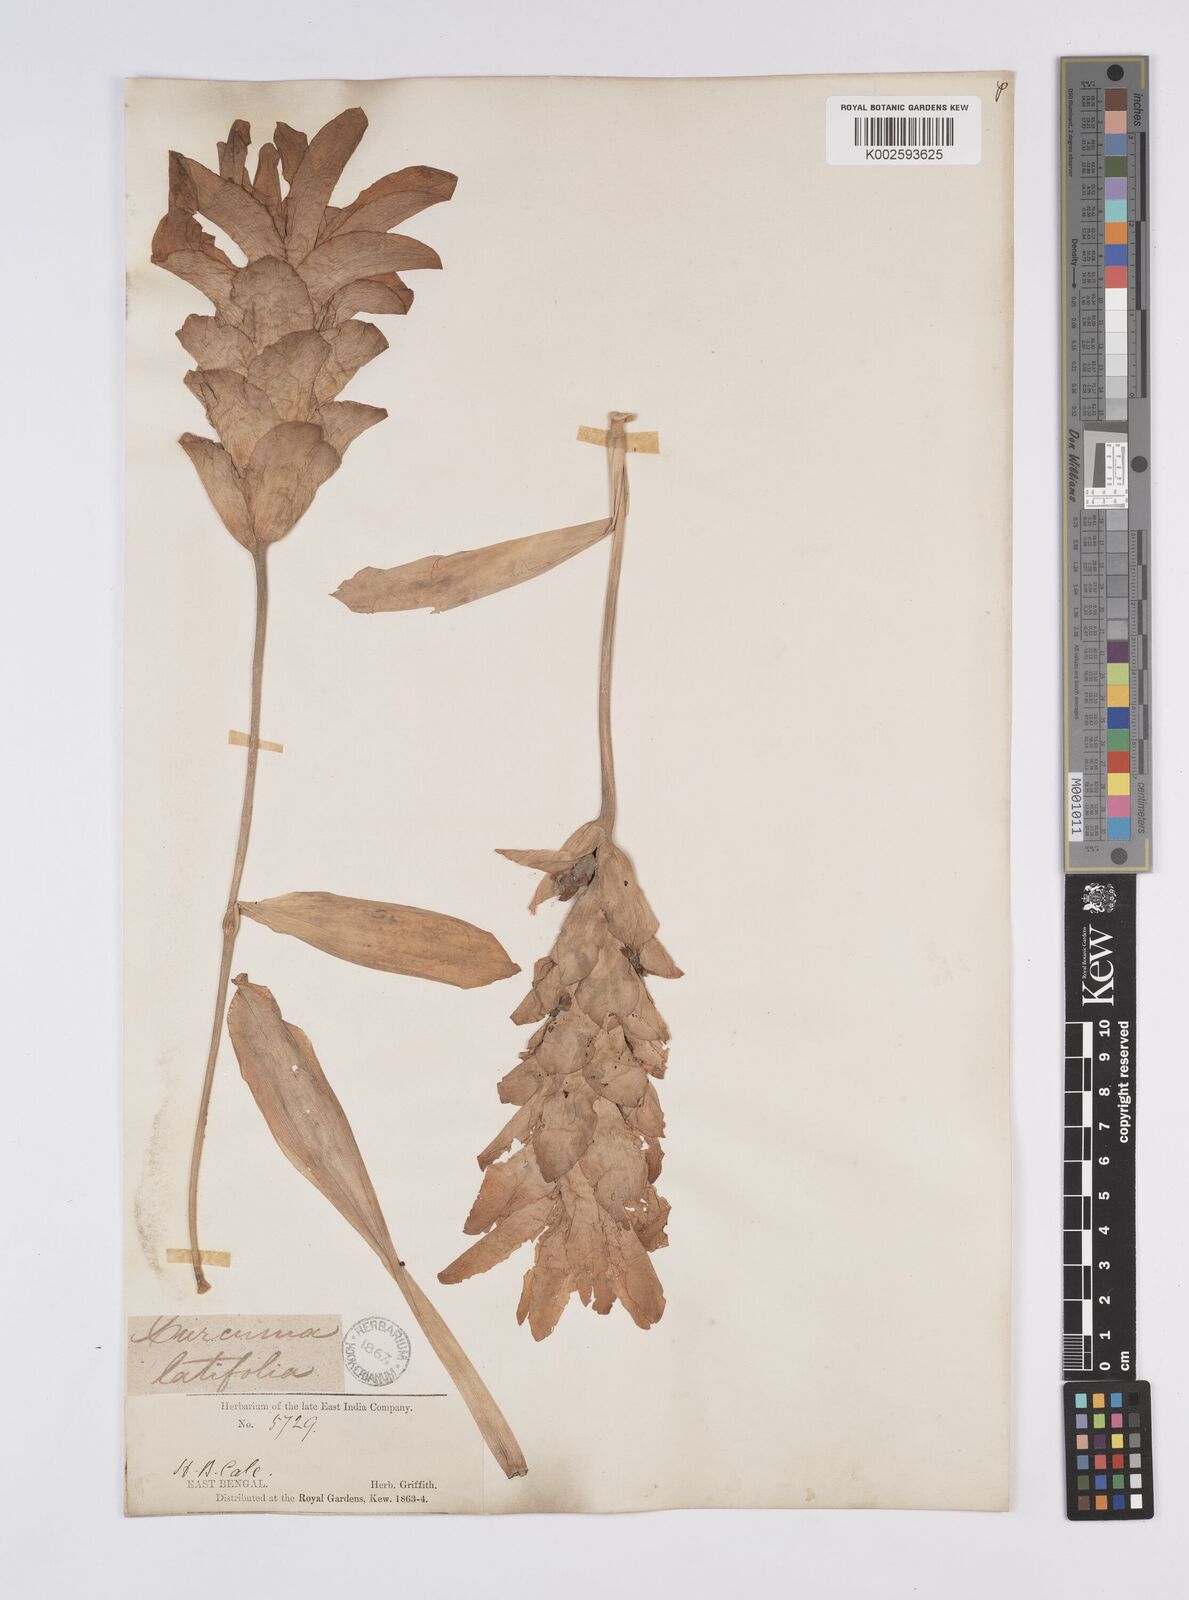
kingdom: Plantae
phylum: Tracheophyta
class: Liliopsida
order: Zingiberales
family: Zingiberaceae
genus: Curcuma
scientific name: Curcuma latifolia
